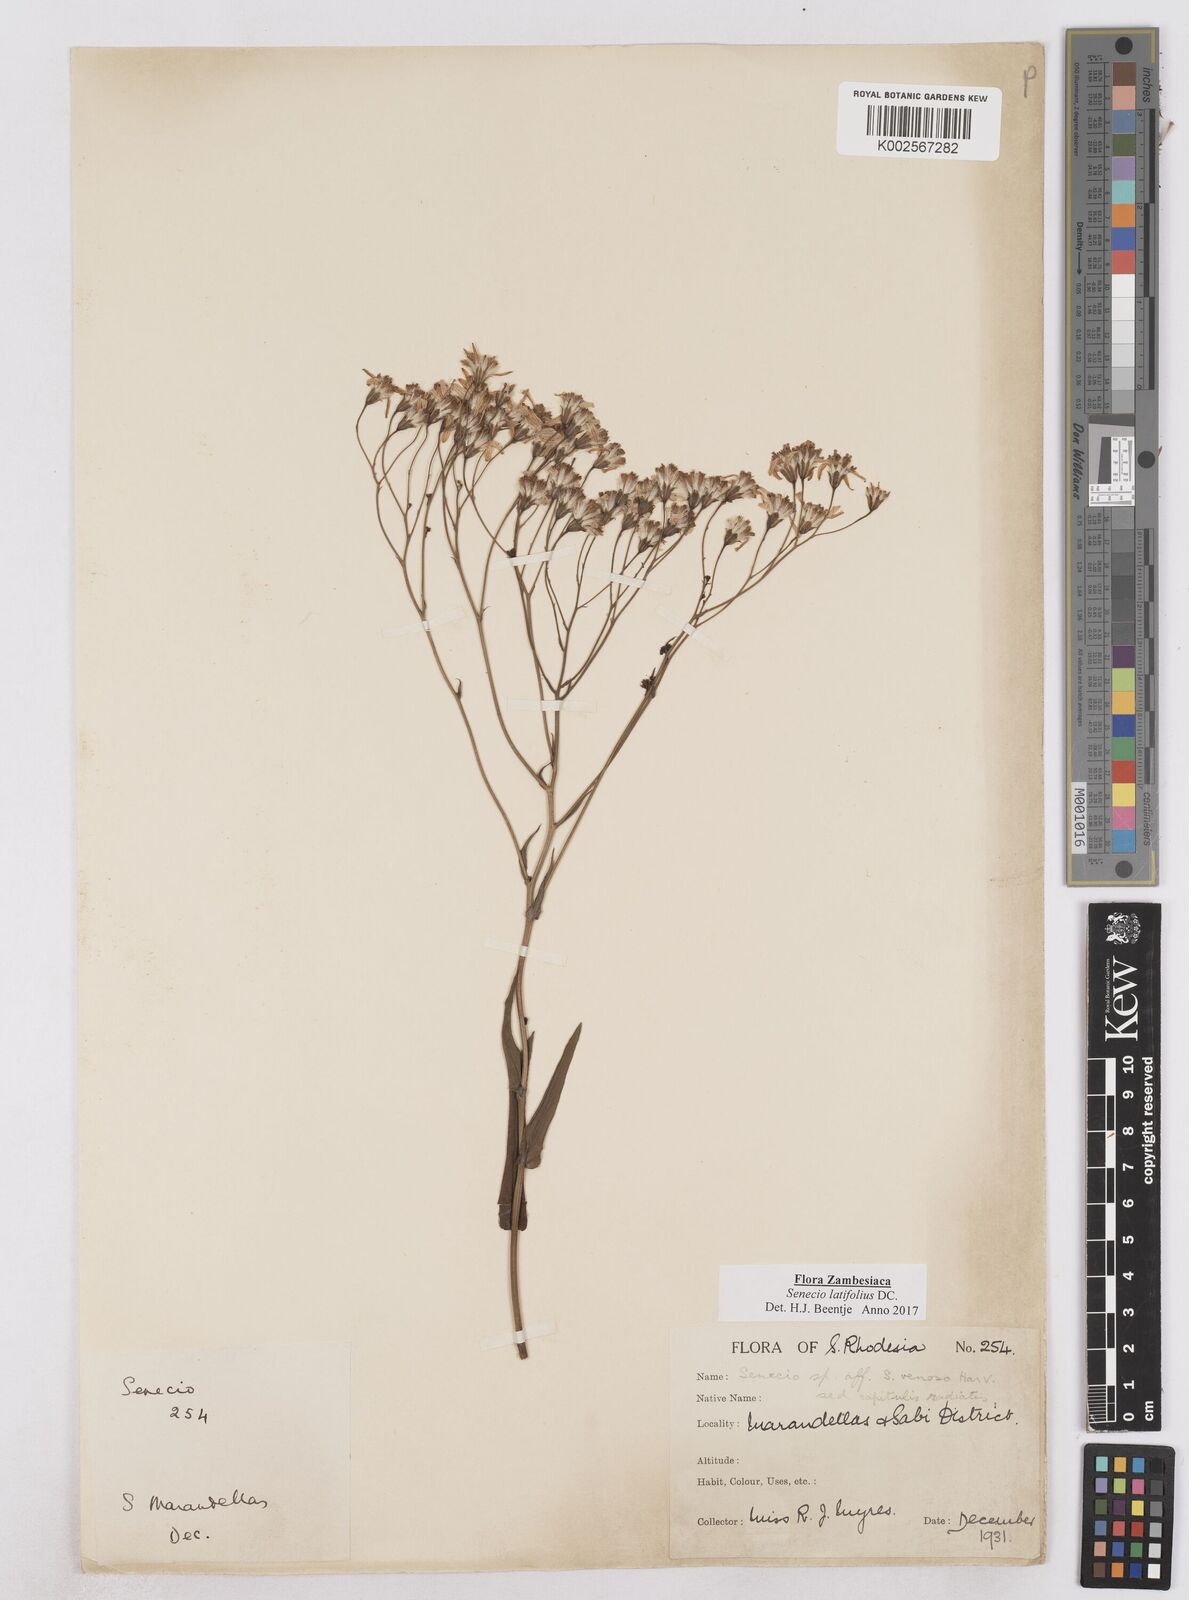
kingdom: Plantae
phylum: Tracheophyta
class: Magnoliopsida
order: Asterales
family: Asteraceae
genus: Senecio
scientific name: Senecio latifolius
